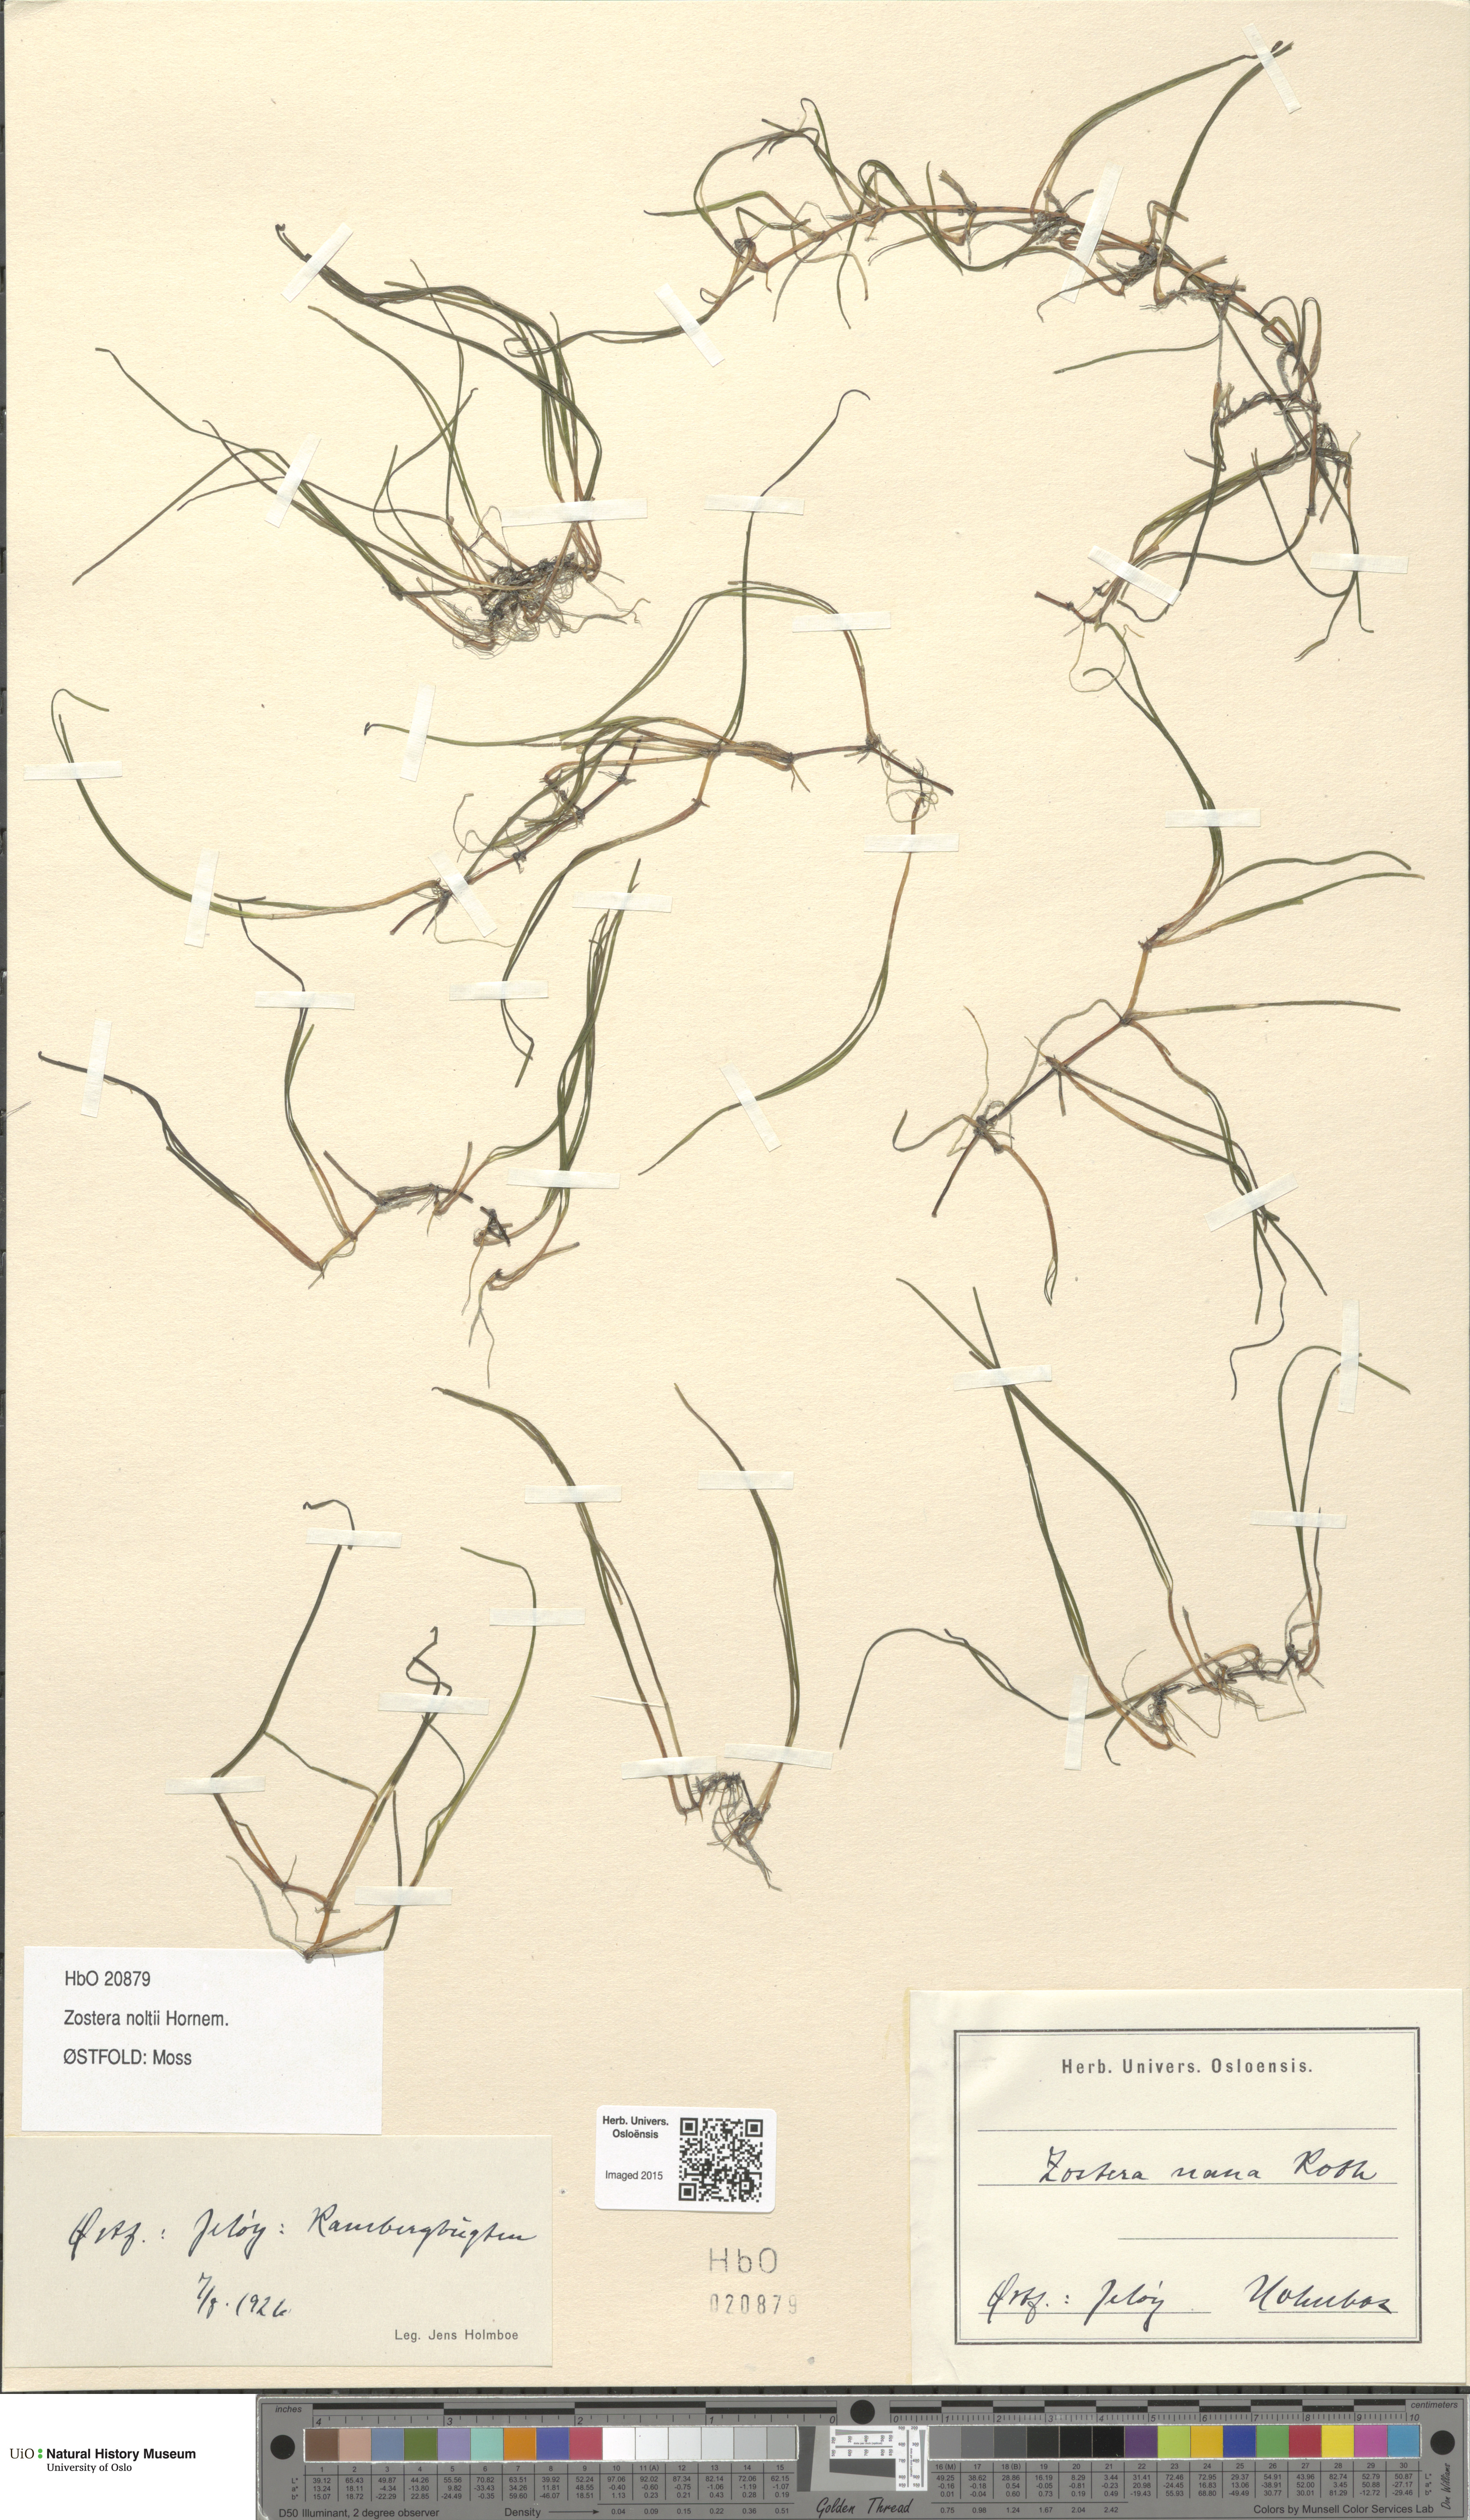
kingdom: Plantae
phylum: Tracheophyta
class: Liliopsida
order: Alismatales
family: Zosteraceae
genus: Zostera
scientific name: Zostera noltii
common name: Dwarf eelgrass
